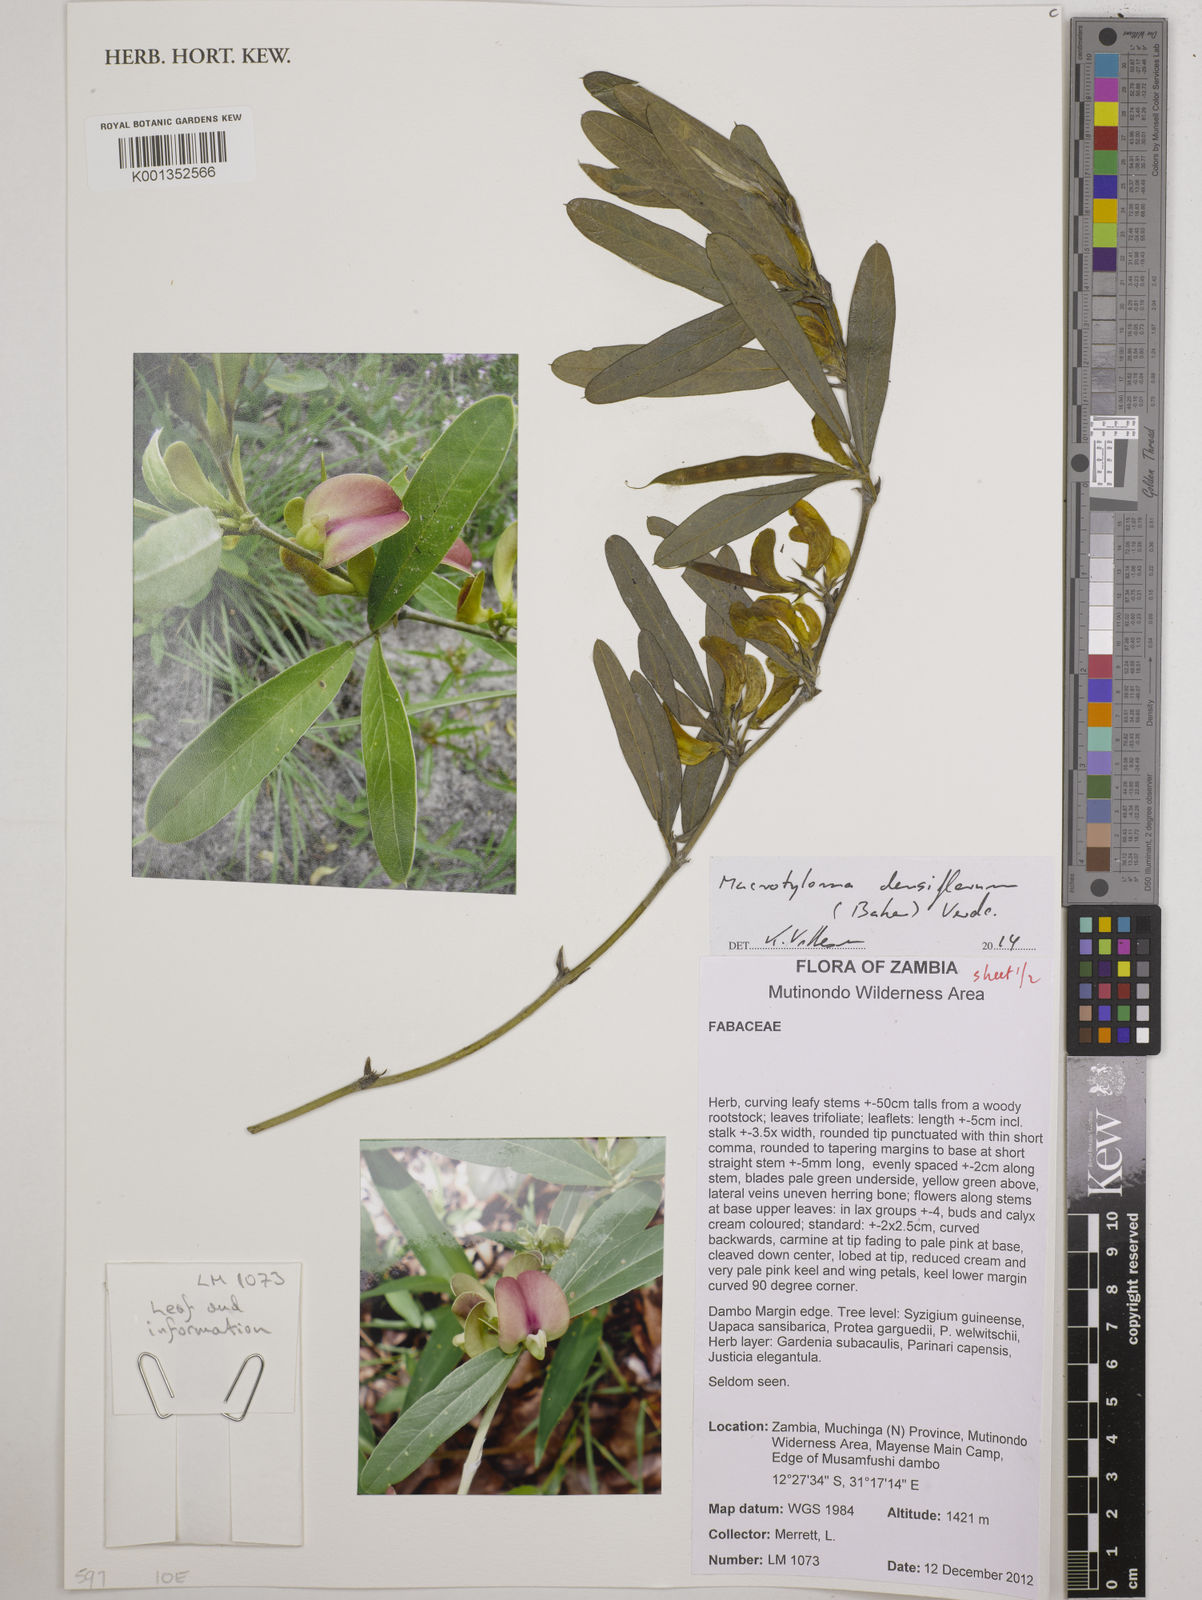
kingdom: Plantae
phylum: Tracheophyta
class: Magnoliopsida
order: Fabales
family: Fabaceae
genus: Macrotyloma
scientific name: Macrotyloma densiflorum
